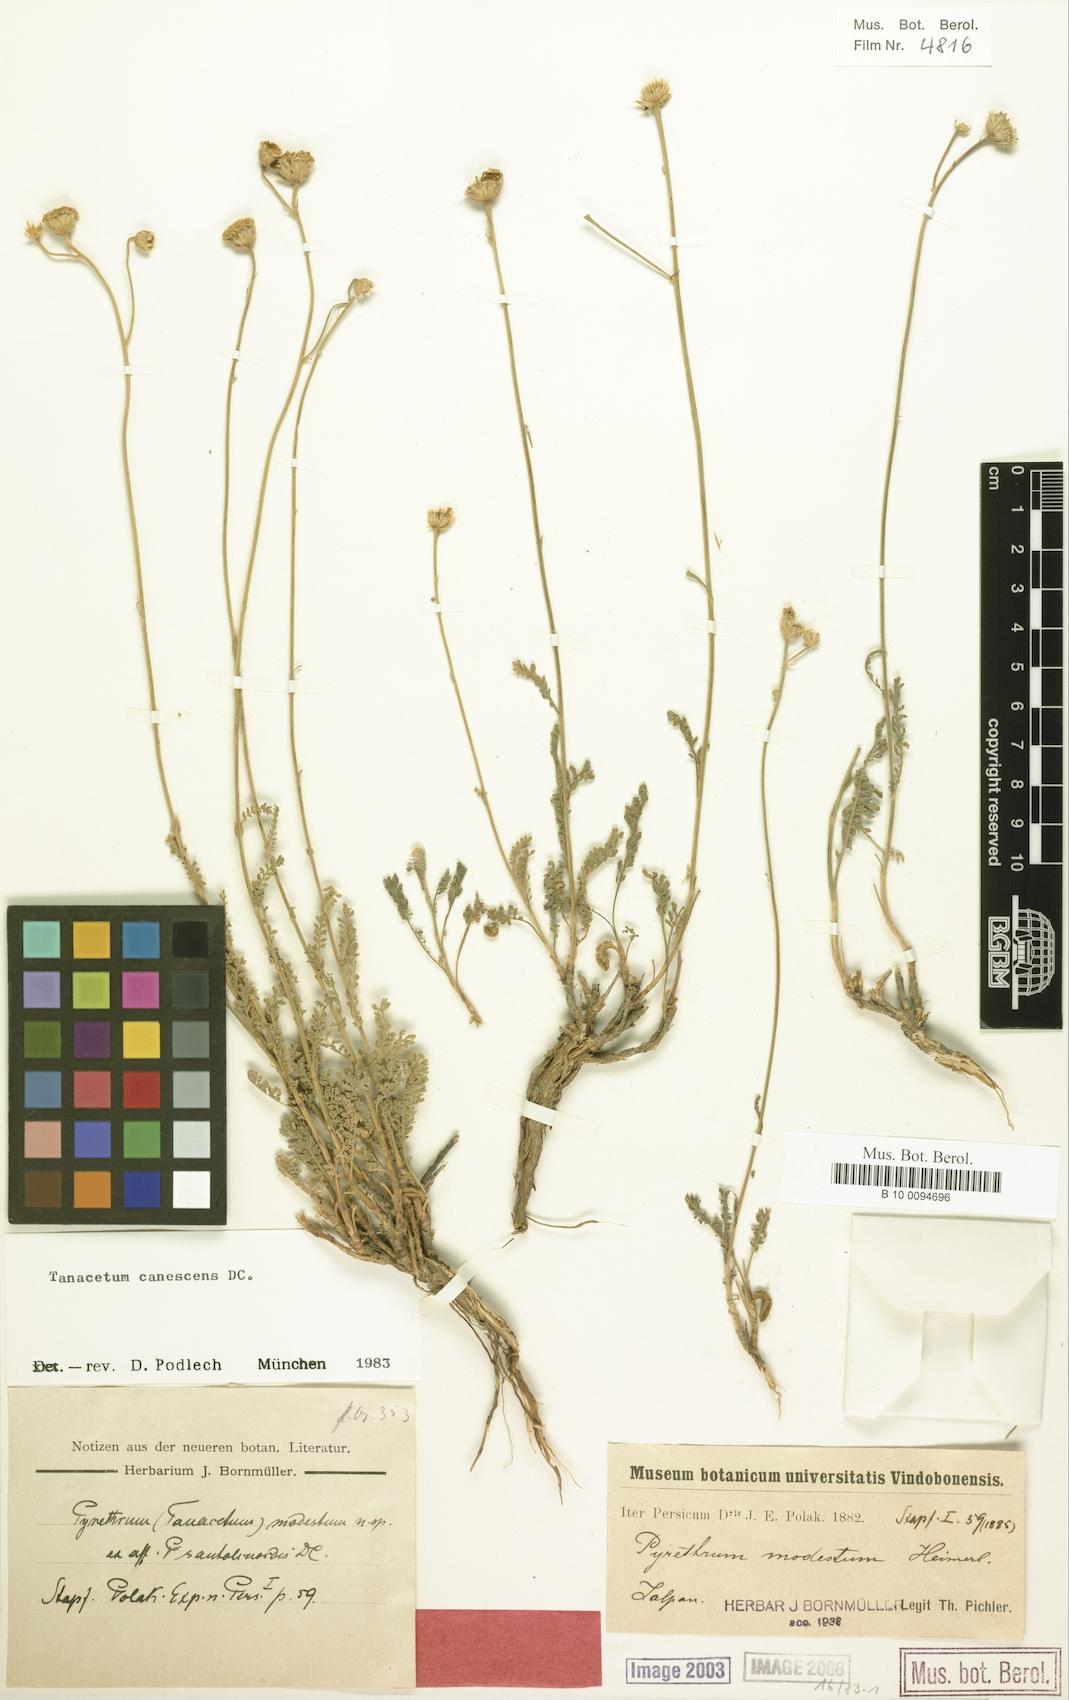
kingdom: Plantae
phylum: Tracheophyta
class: Magnoliopsida
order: Asterales
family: Asteraceae
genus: Tanacetum
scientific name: Tanacetum canescens
